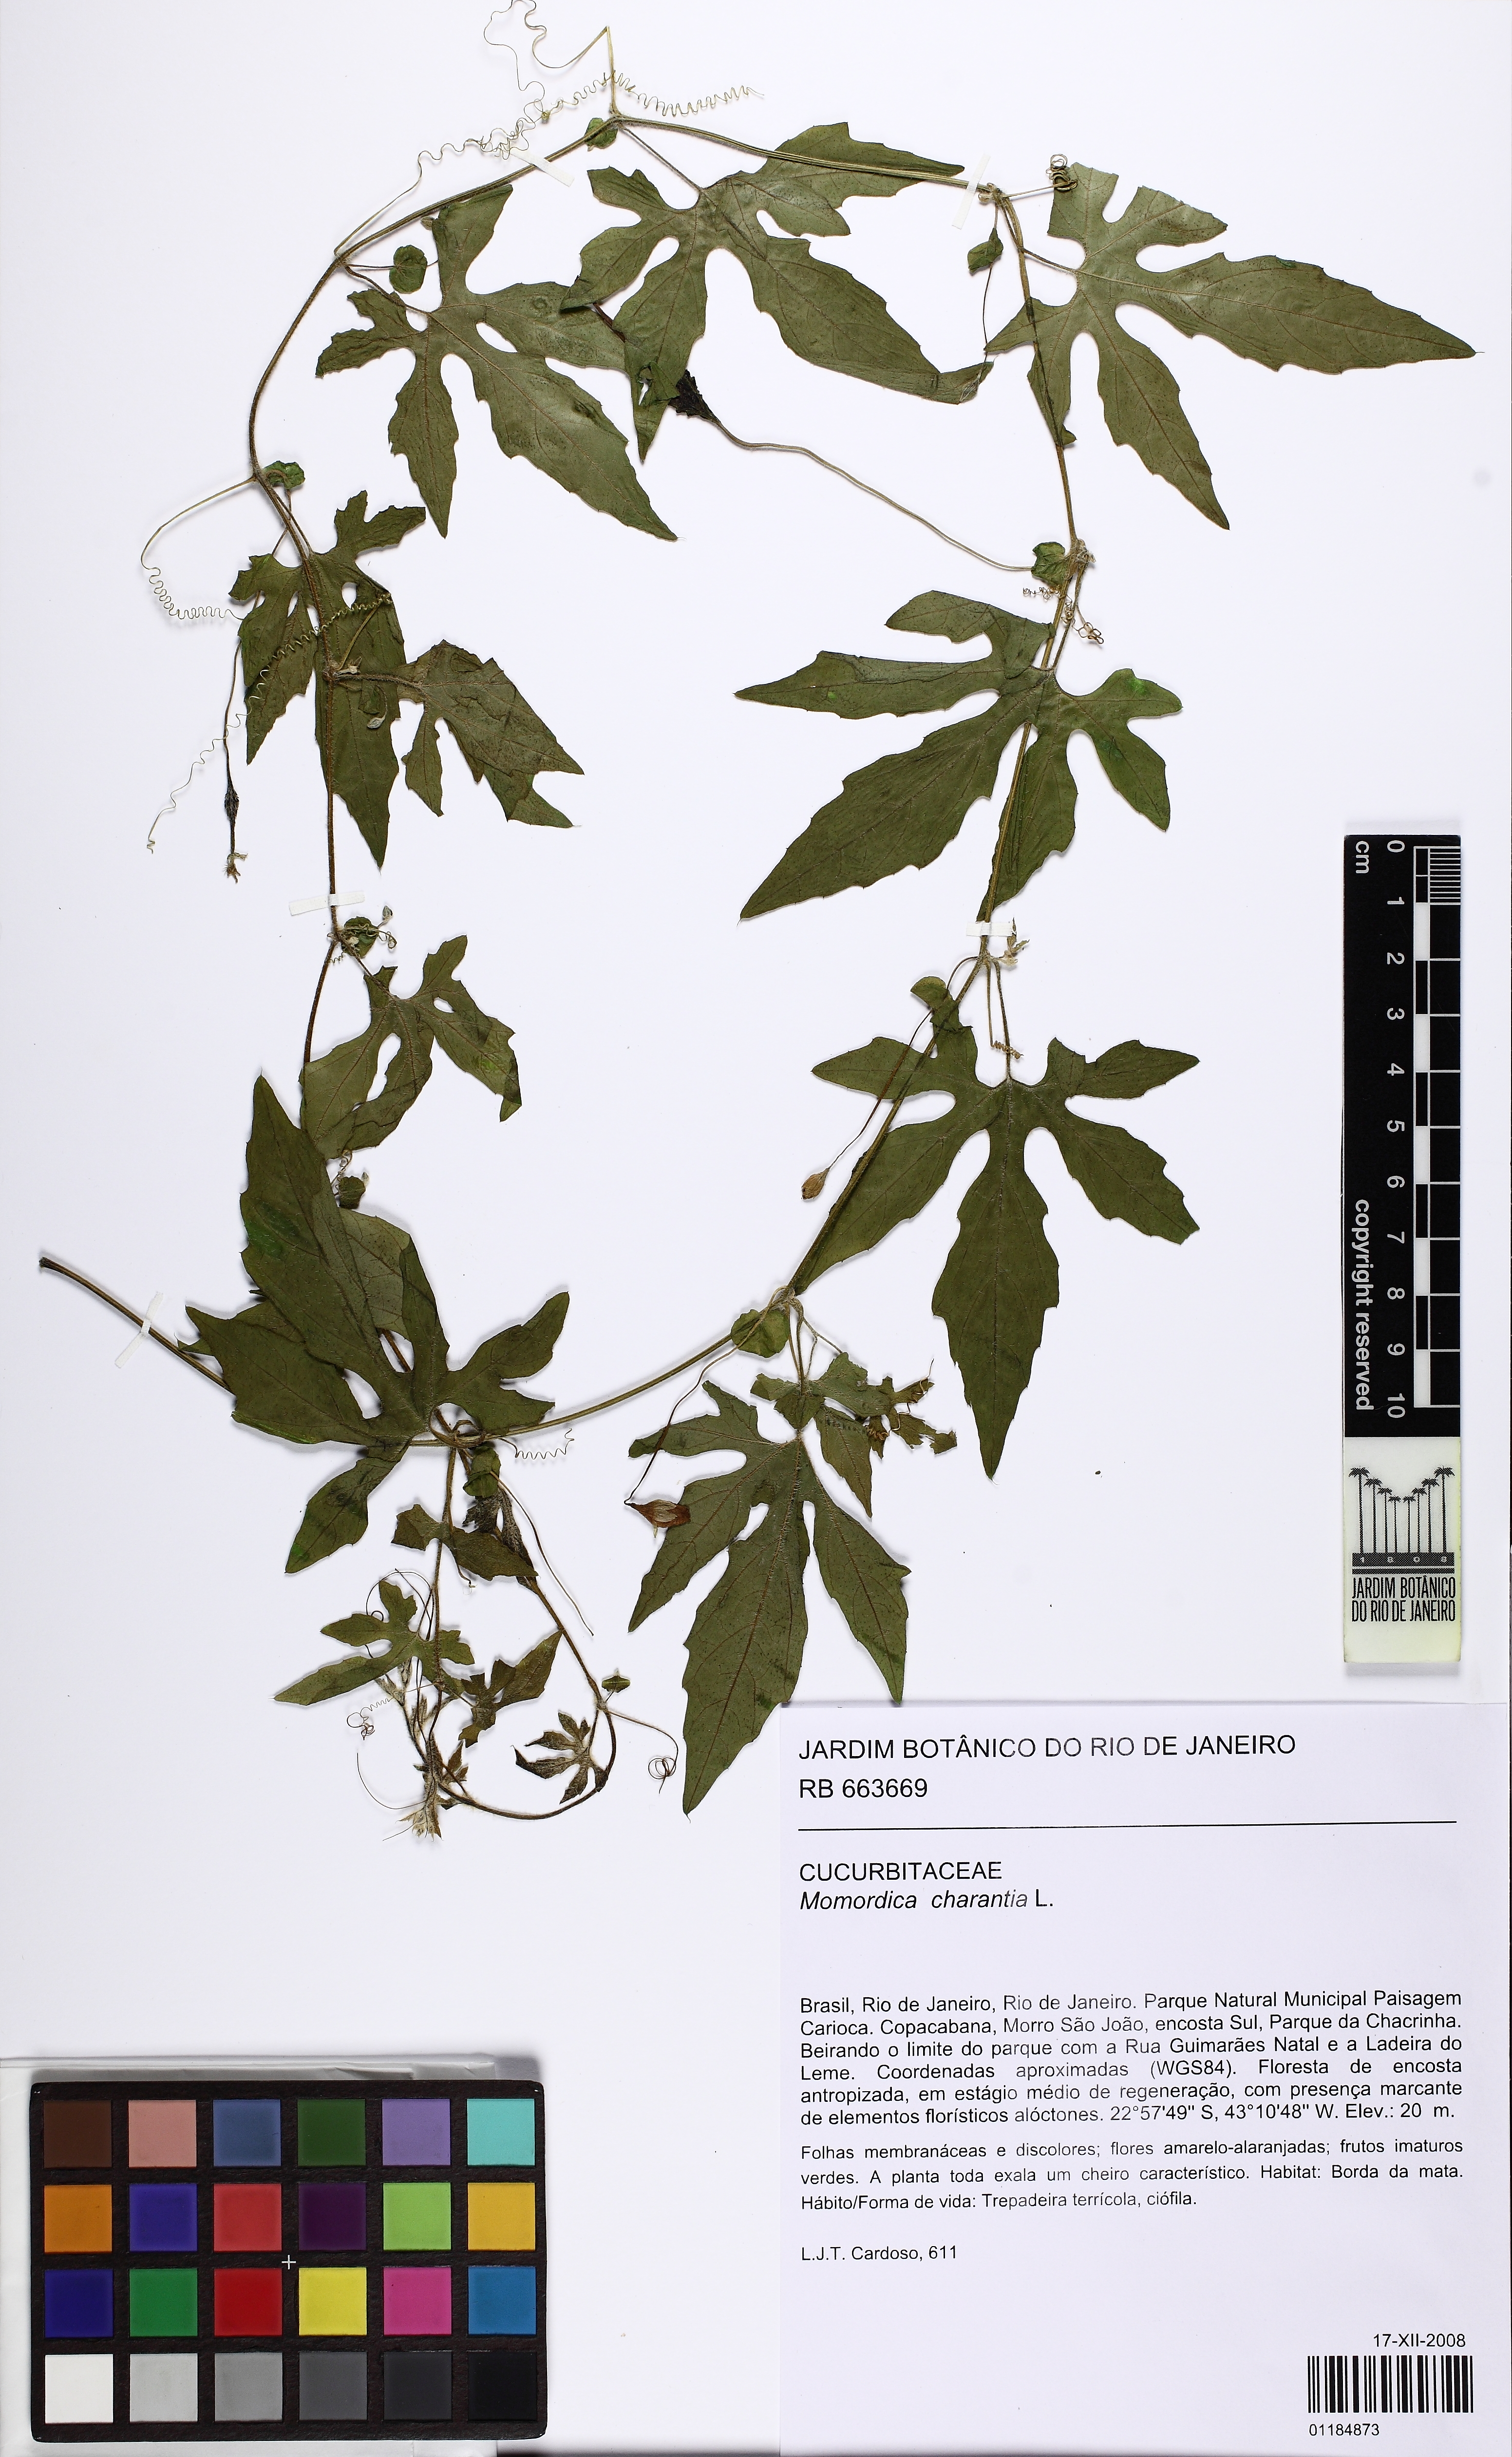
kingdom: Plantae
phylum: Tracheophyta
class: Magnoliopsida
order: Cucurbitales
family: Cucurbitaceae
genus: Momordica
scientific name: Momordica charantia
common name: Balsampear
